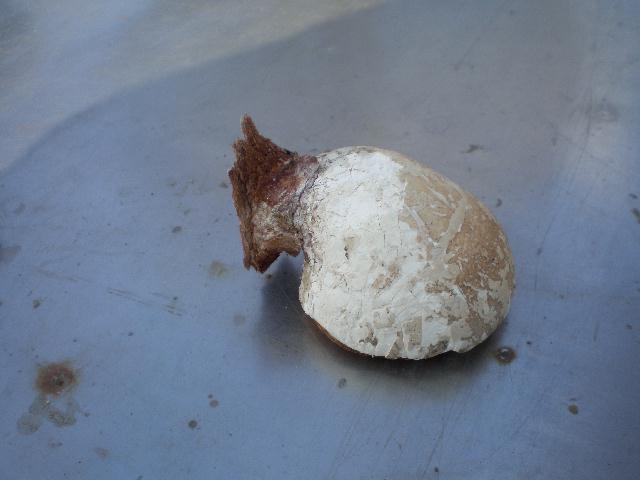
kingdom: Fungi
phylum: Basidiomycota
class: Agaricomycetes
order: Polyporales
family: Fomitopsidaceae
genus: Fomitopsis
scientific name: Fomitopsis betulina
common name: birkeporesvamp
